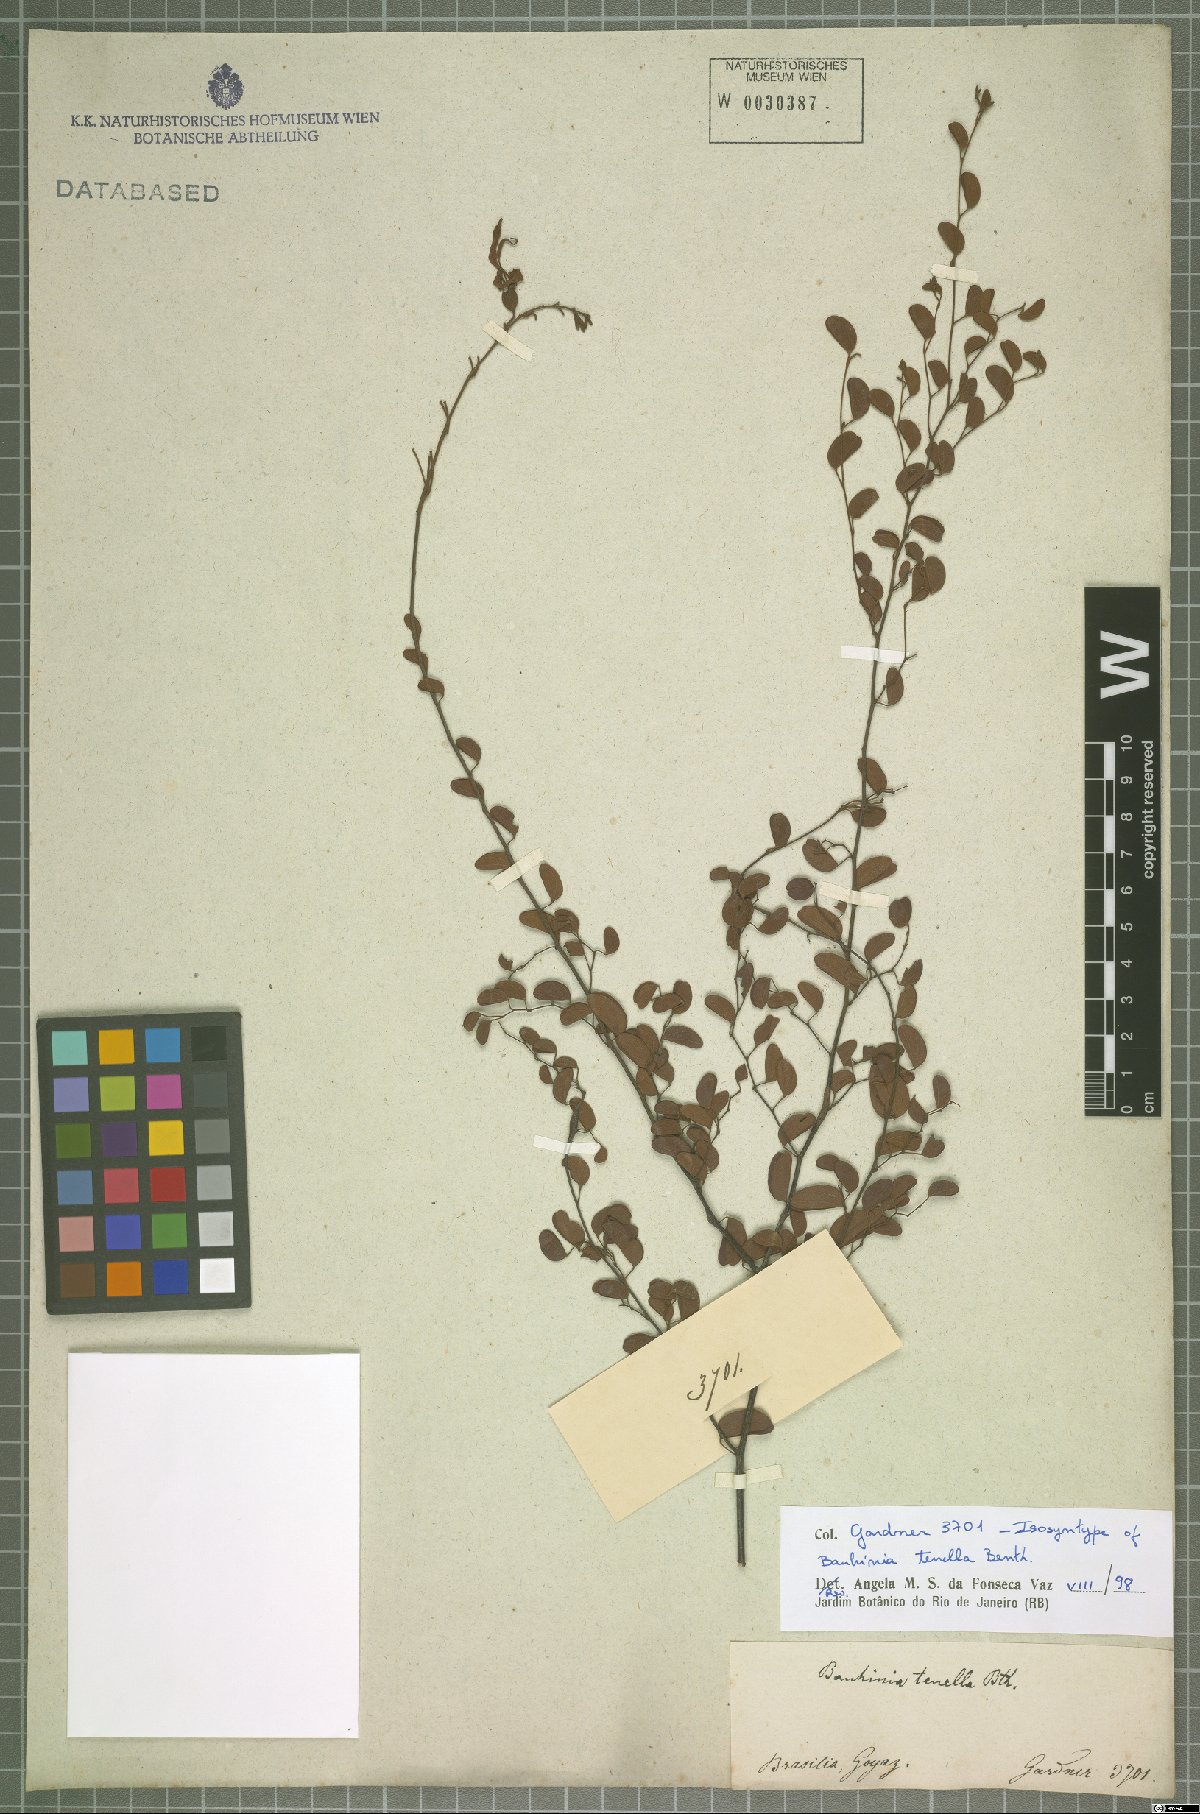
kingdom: Plantae
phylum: Tracheophyta
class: Magnoliopsida
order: Fabales
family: Fabaceae
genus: Bauhinia
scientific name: Bauhinia tenella
